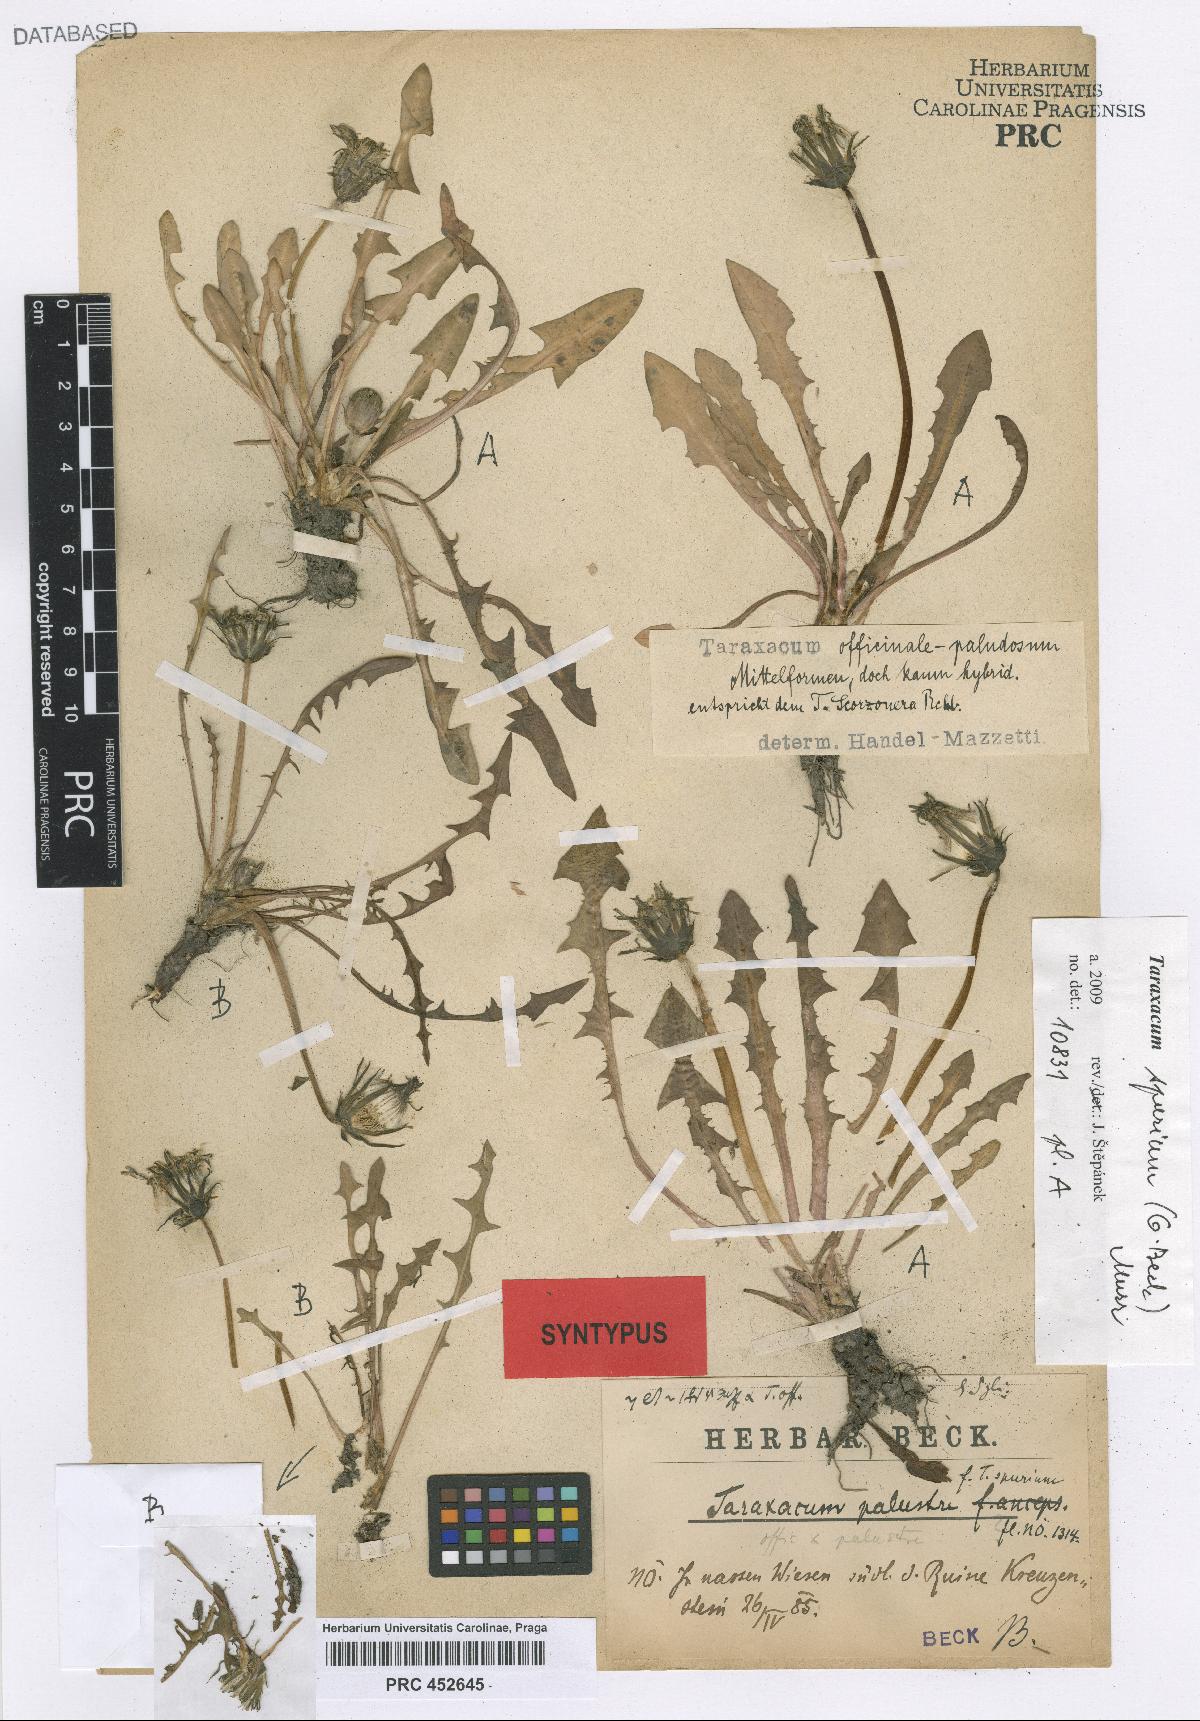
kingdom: Plantae
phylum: Tracheophyta
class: Magnoliopsida
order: Asterales
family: Asteraceae
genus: Taraxacum
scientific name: Taraxacum spurium
